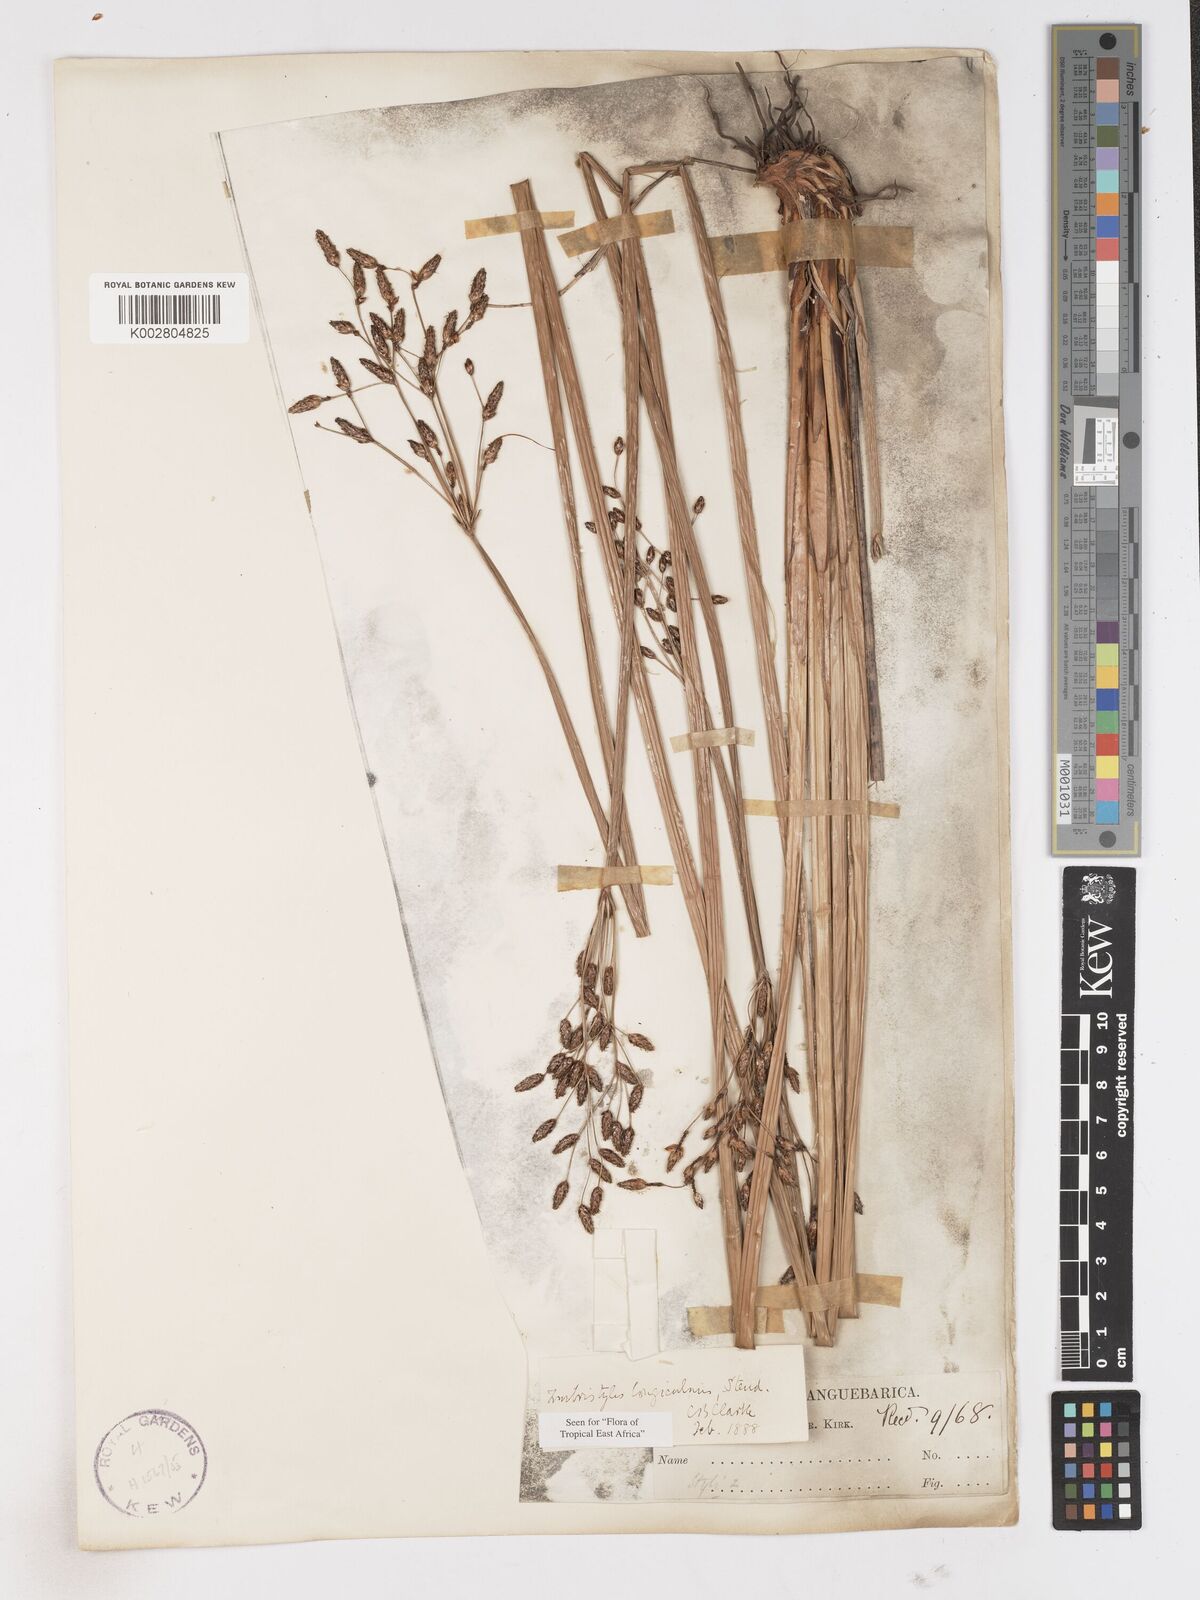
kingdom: Plantae
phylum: Tracheophyta
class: Liliopsida
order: Poales
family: Cyperaceae
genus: Fimbristylis
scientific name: Fimbristylis bivalvis
